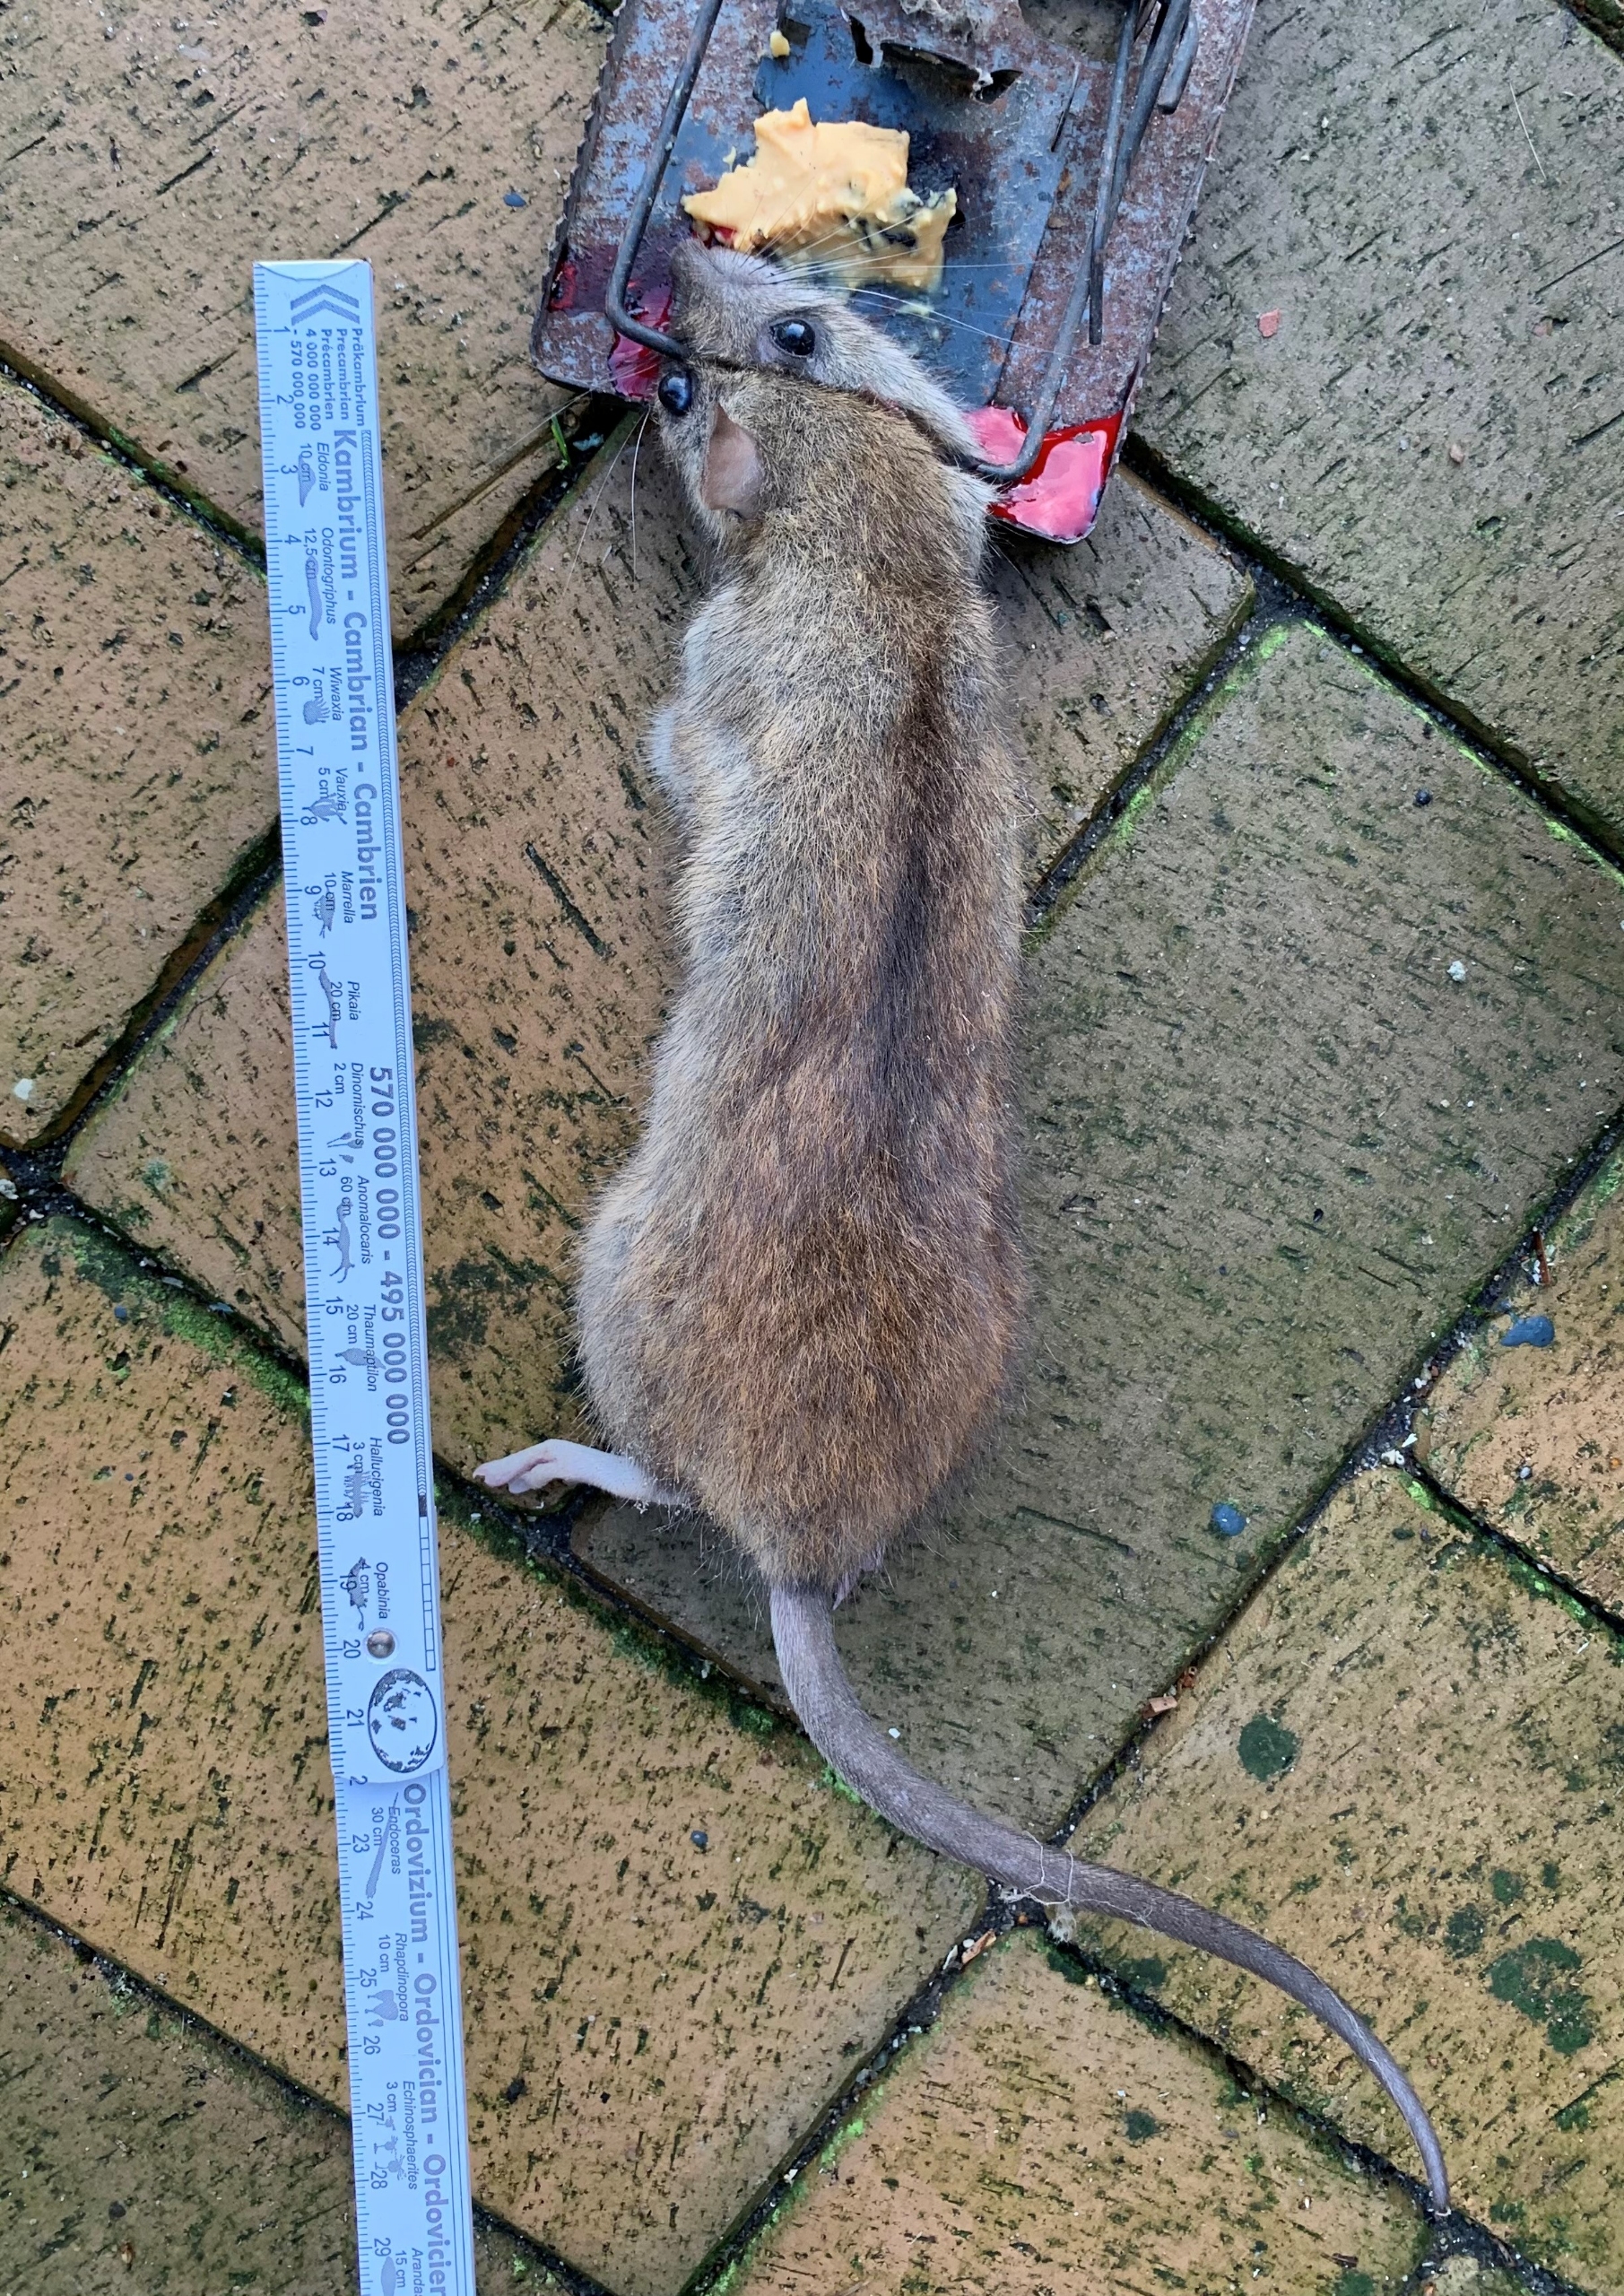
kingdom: Animalia
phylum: Chordata
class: Mammalia
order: Rodentia
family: Muridae
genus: Rattus
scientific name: Rattus norvegicus
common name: Brun rotte
